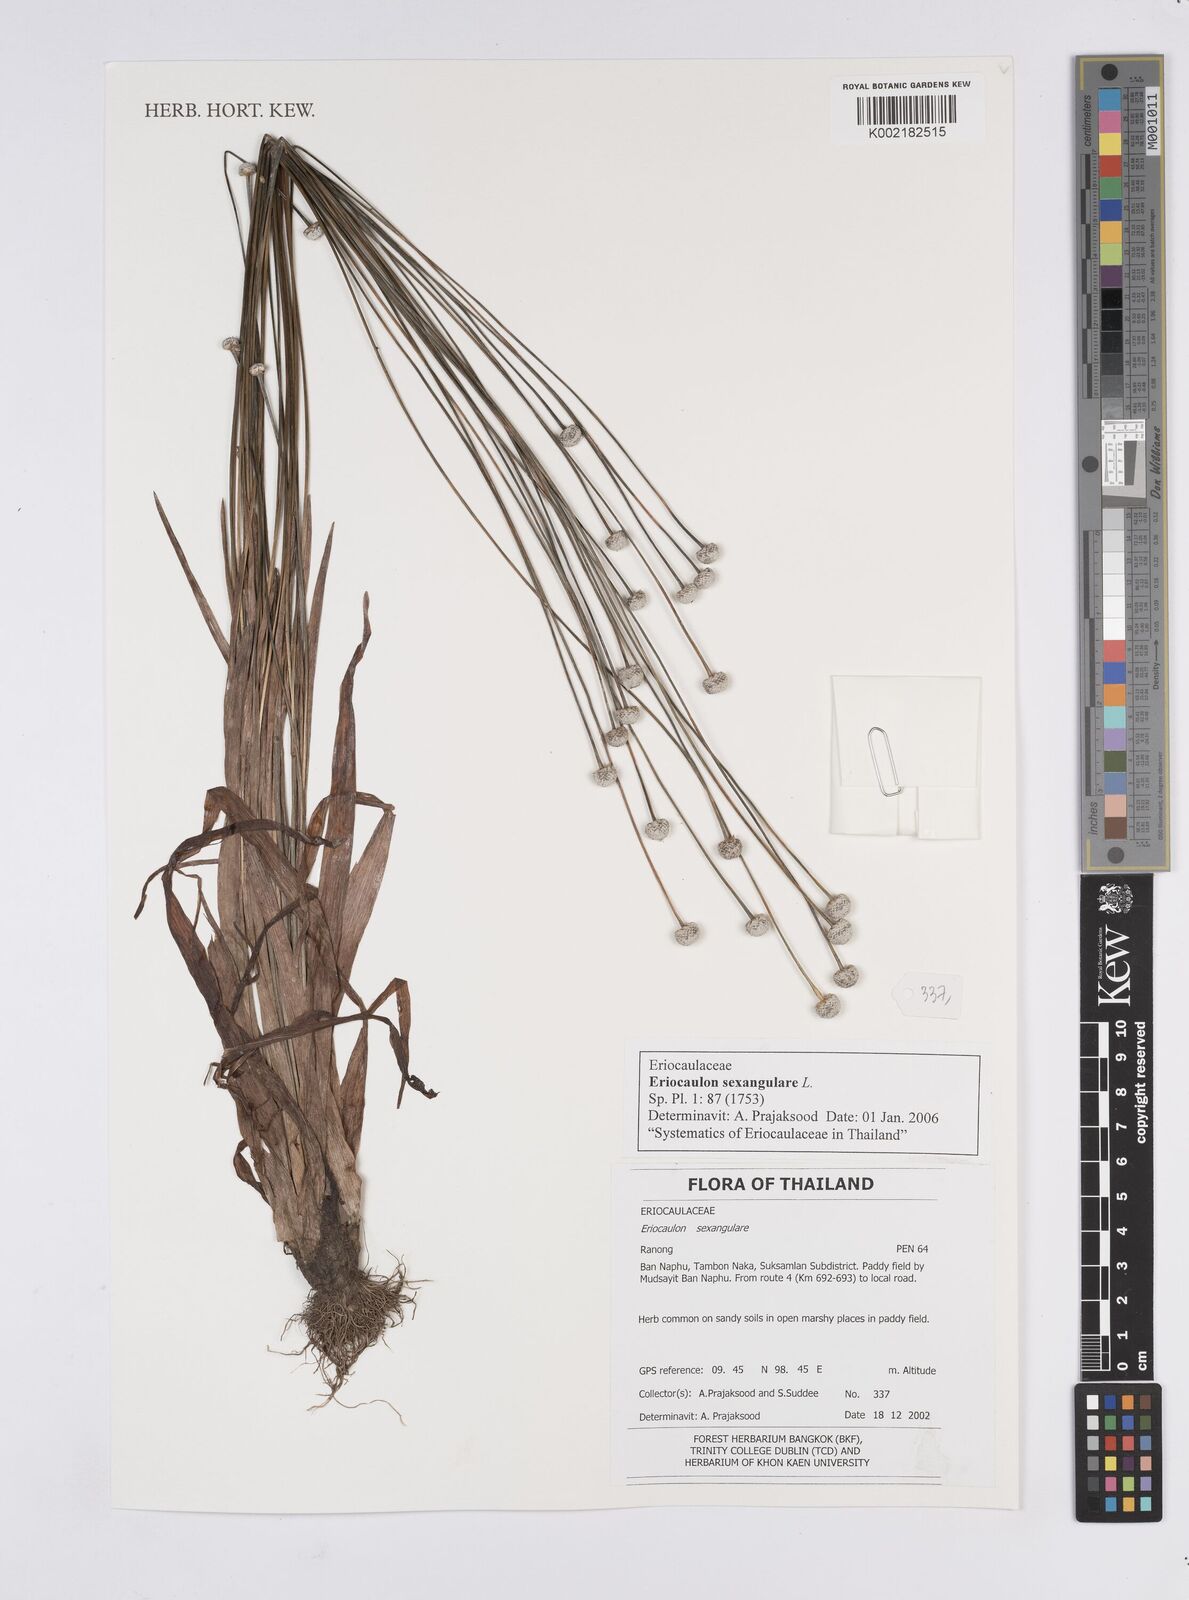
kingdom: Plantae
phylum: Tracheophyta
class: Liliopsida
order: Poales
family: Eriocaulaceae
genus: Eriocaulon
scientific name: Eriocaulon sexangulare
